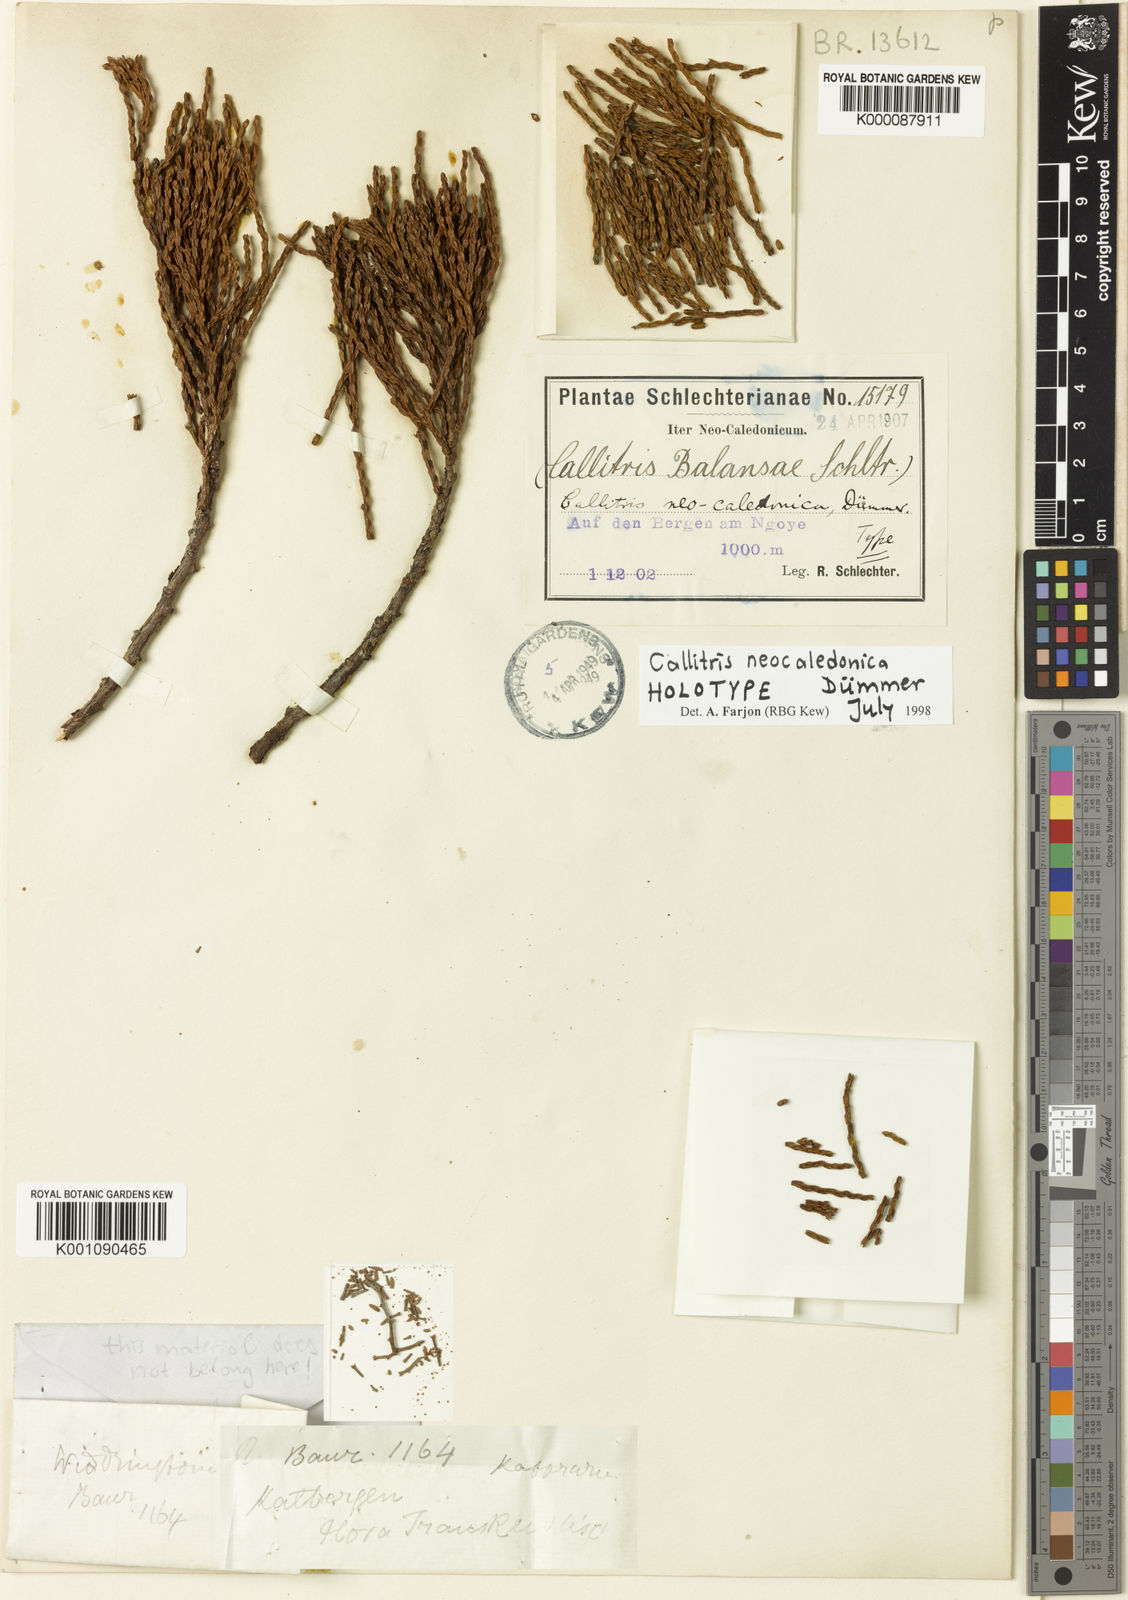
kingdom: Plantae
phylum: Tracheophyta
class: Pinopsida
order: Pinales
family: Cupressaceae
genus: Callitris
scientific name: Callitris
